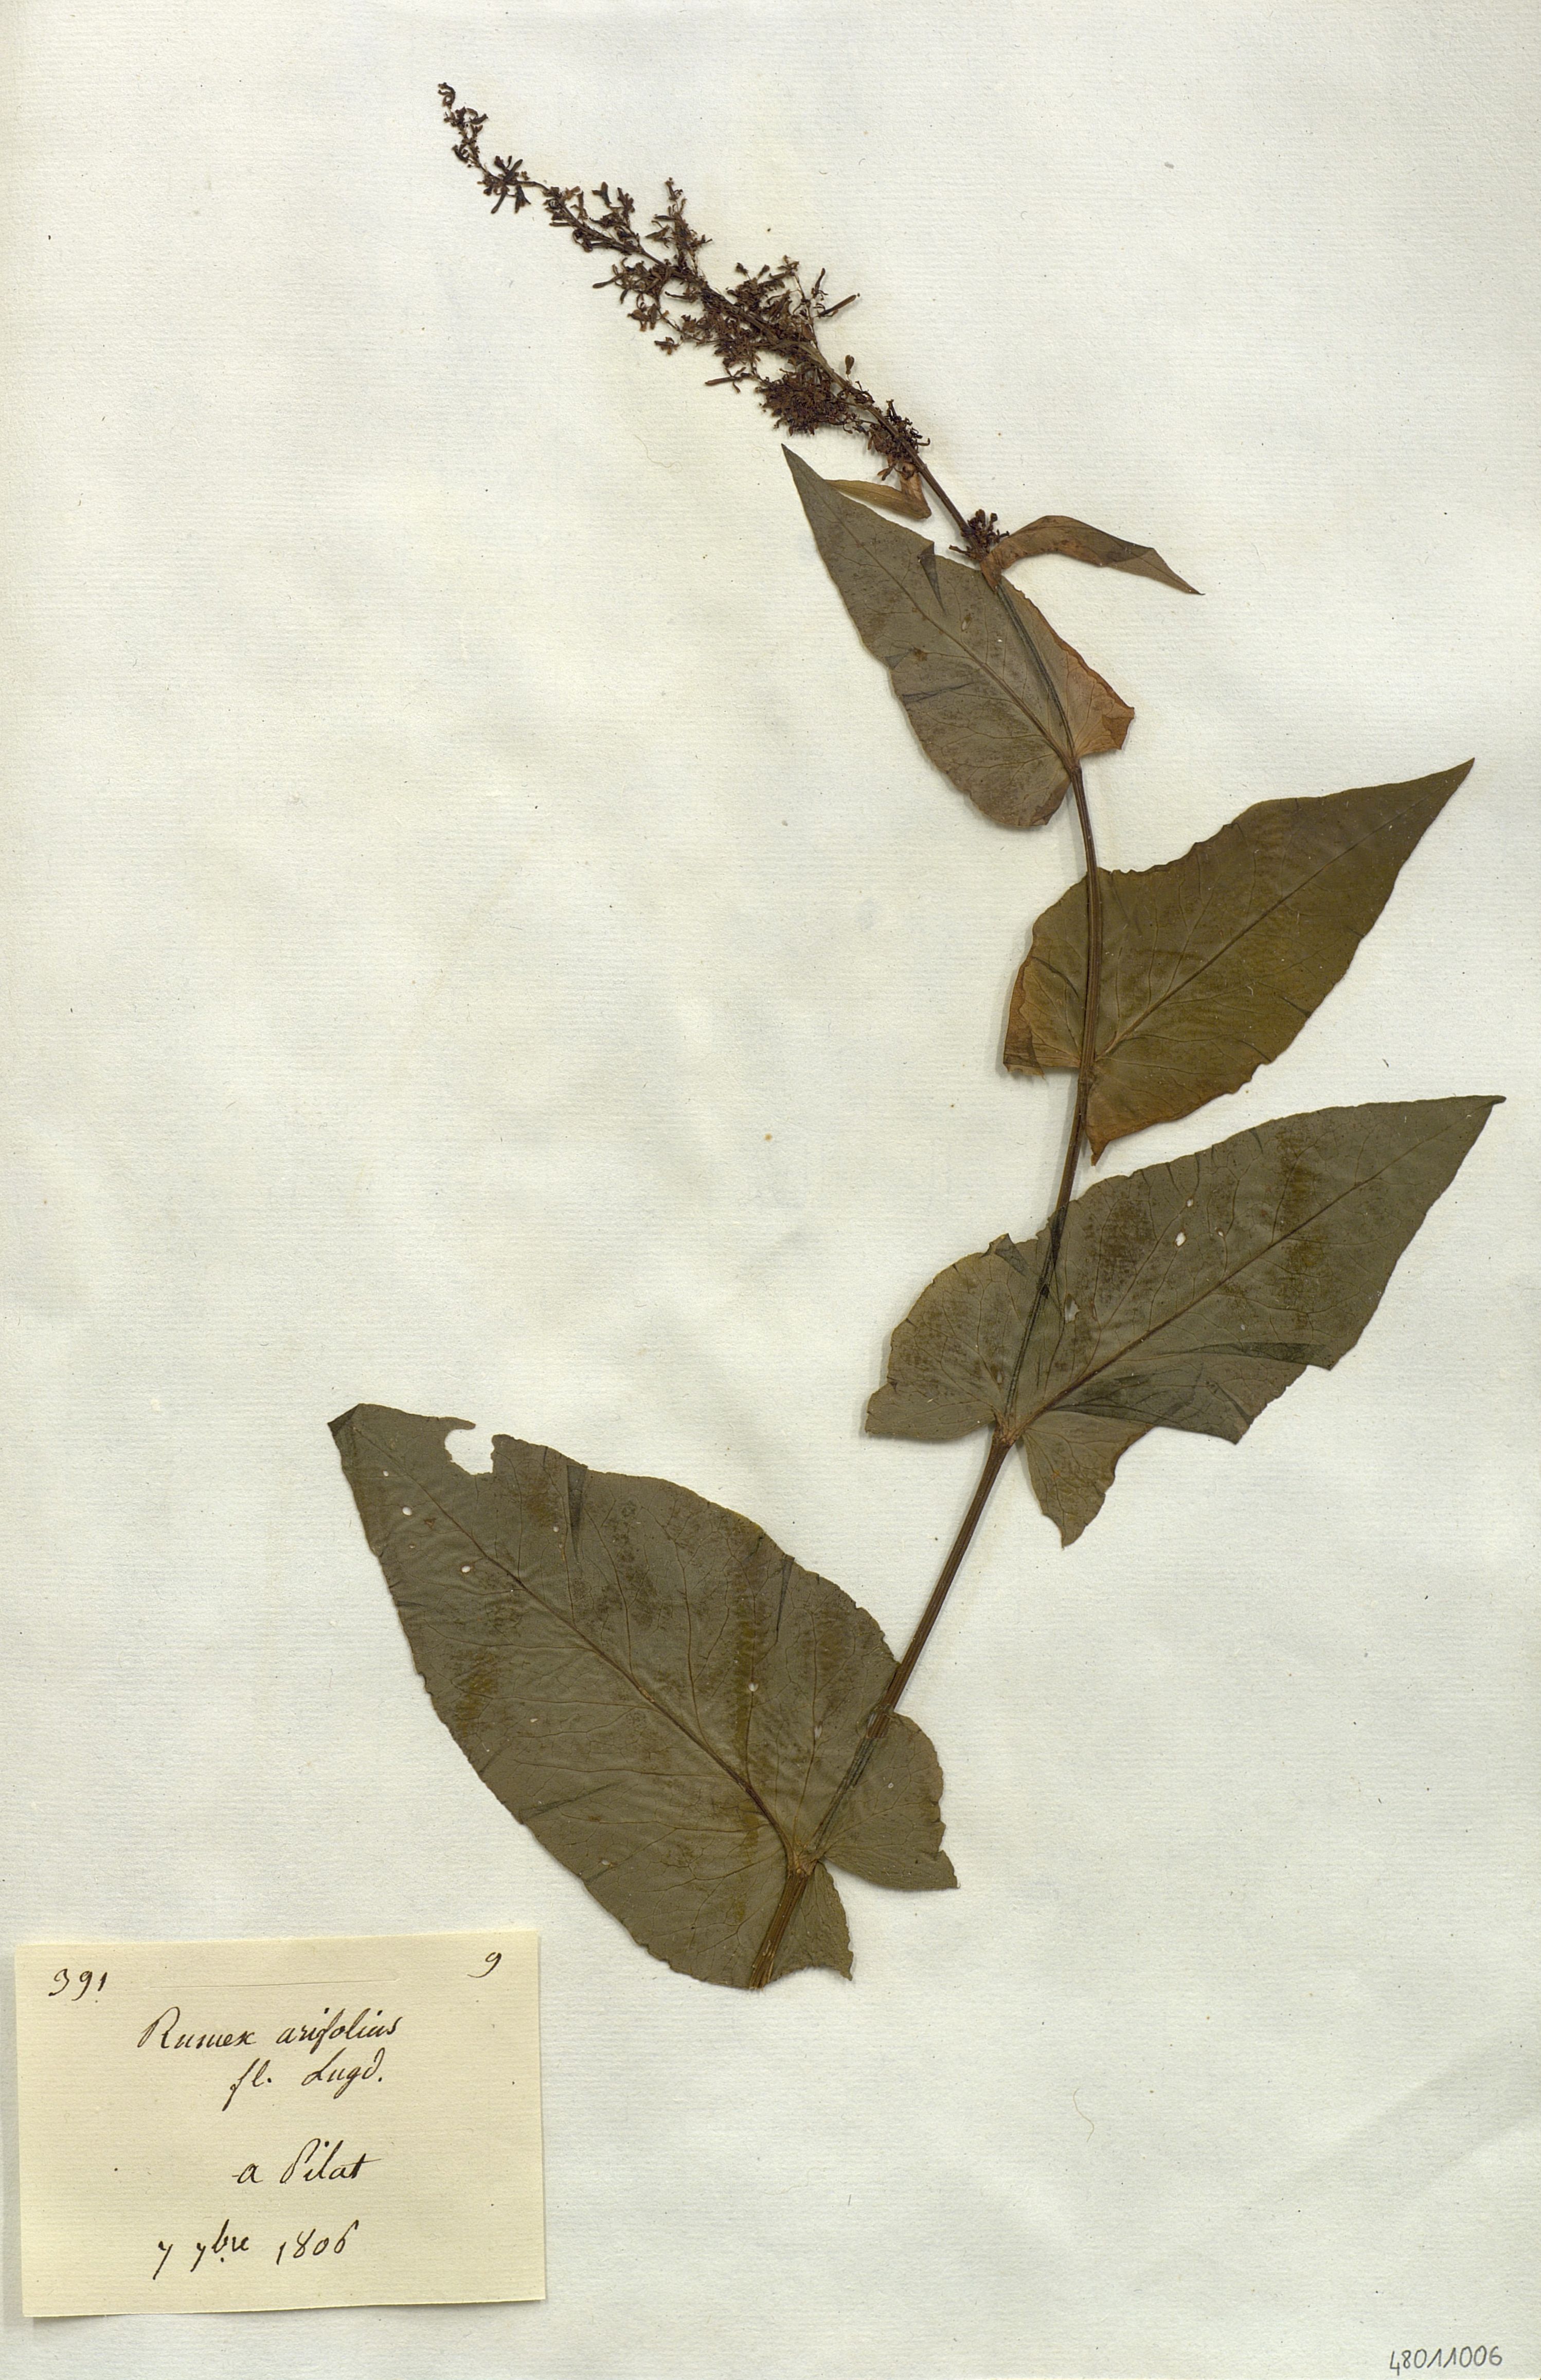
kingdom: Plantae
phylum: Tracheophyta
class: Magnoliopsida
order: Caryophyllales
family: Polygonaceae
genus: Rumex
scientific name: Rumex arifolius
